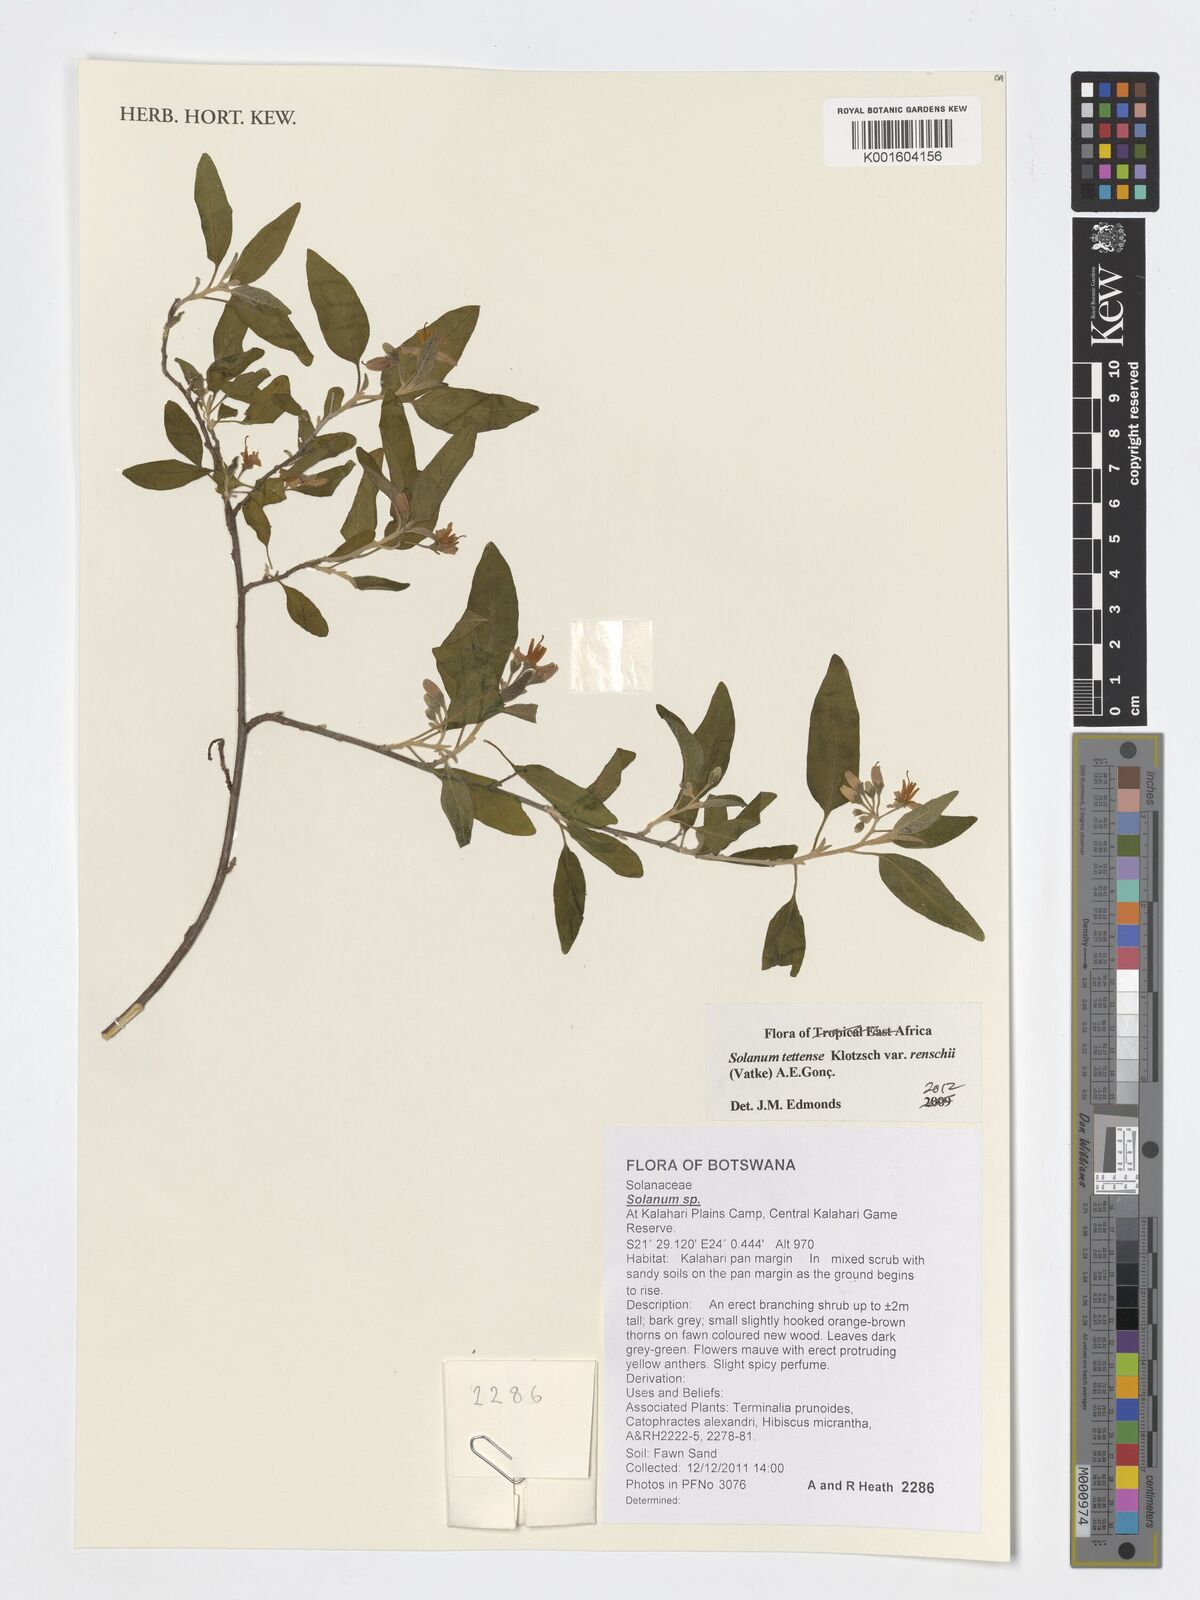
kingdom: Plantae
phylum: Tracheophyta
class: Magnoliopsida
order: Solanales
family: Solanaceae
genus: Solanum
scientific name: Solanum tettense
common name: Mozambique bitter apple
